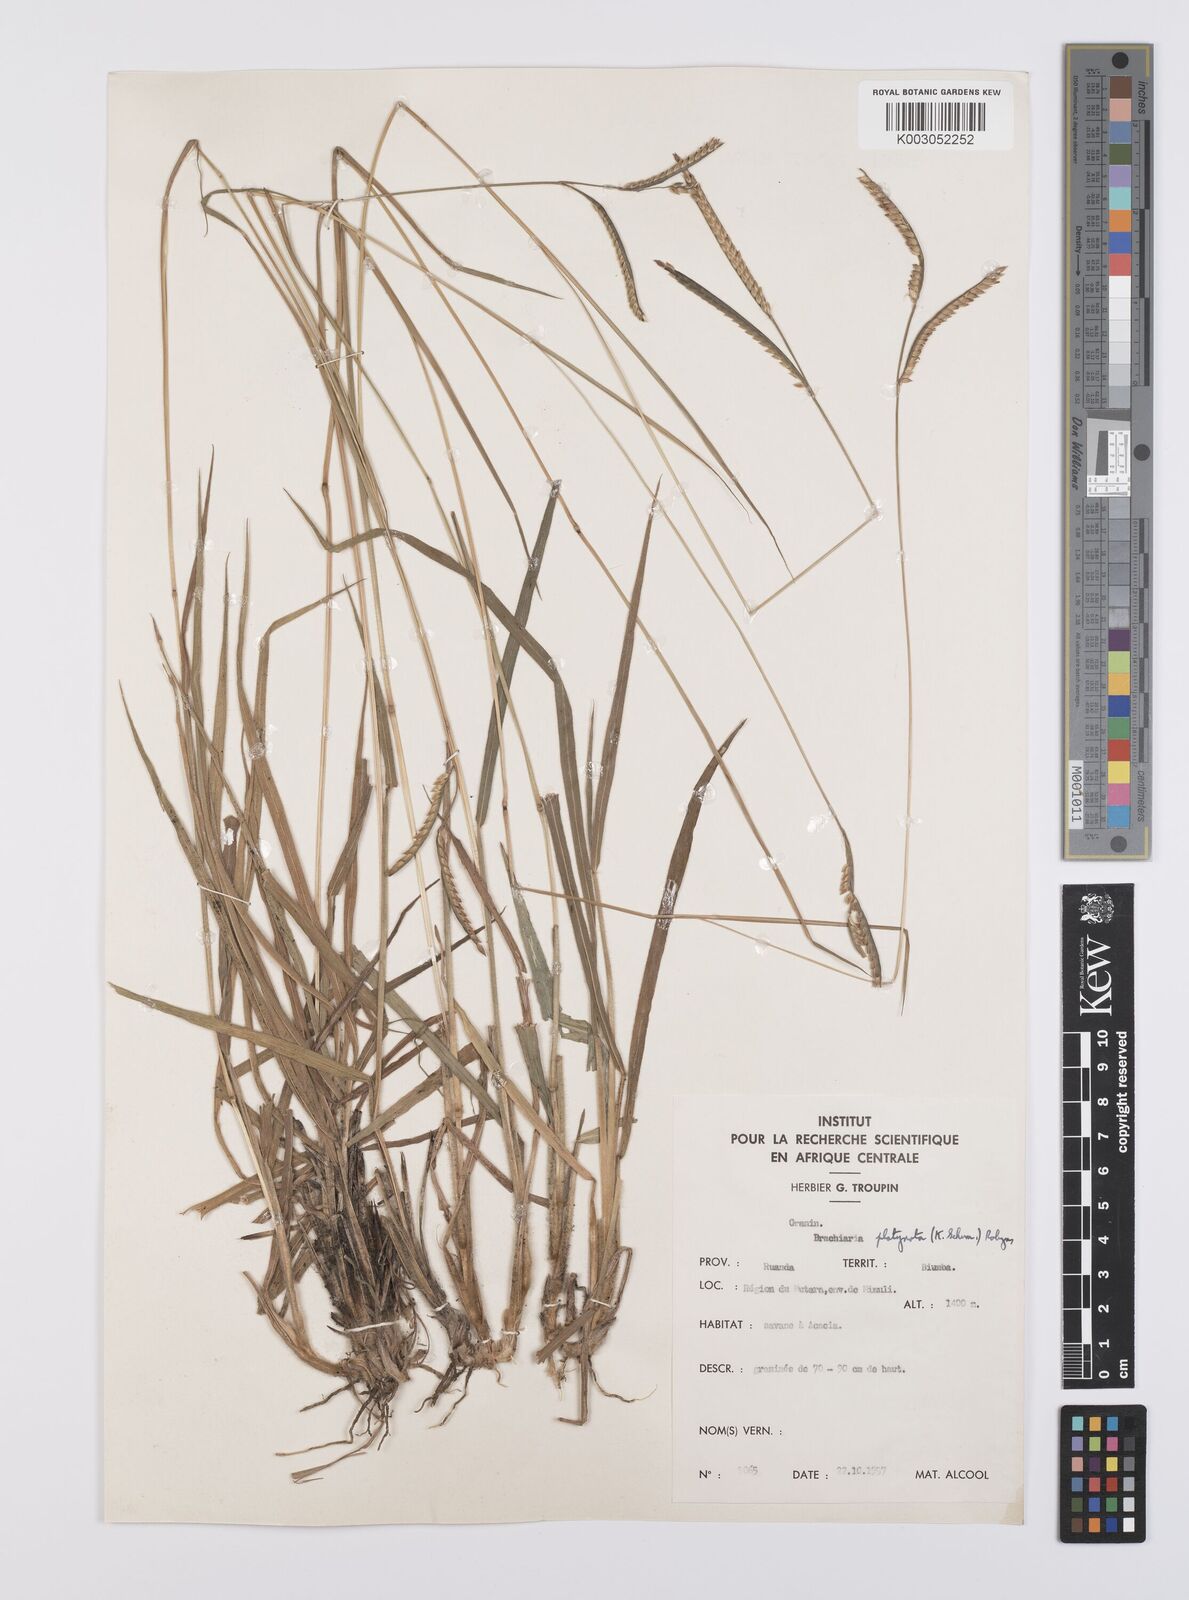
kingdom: Plantae
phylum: Tracheophyta
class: Liliopsida
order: Poales
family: Poaceae
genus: Urochloa
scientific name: Urochloa platynota
